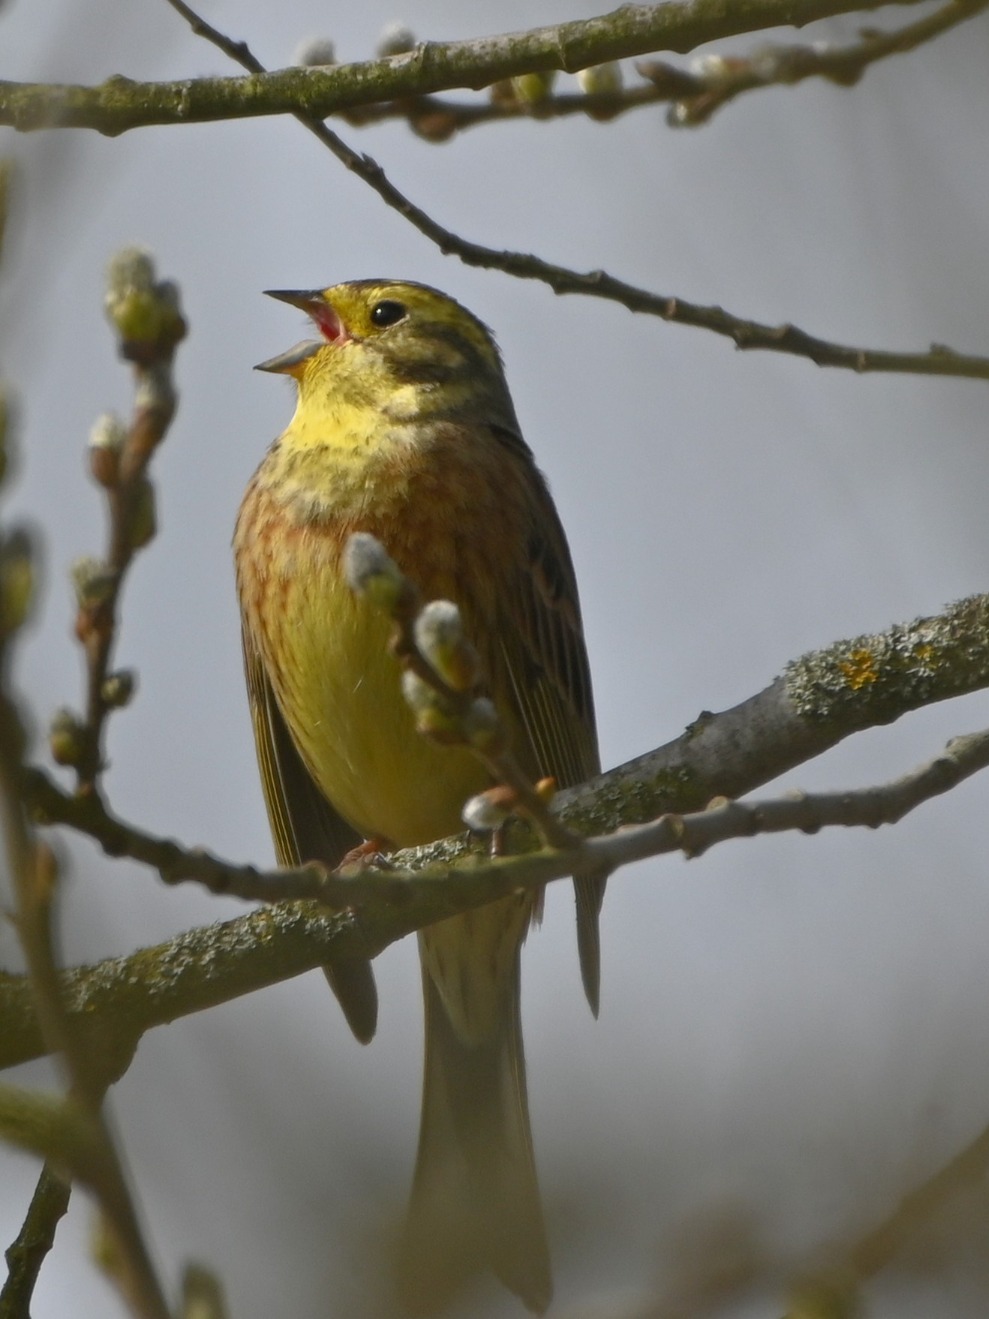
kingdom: Animalia
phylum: Chordata
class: Aves
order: Passeriformes
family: Emberizidae
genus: Emberiza
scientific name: Emberiza citrinella
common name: Gulspurv
